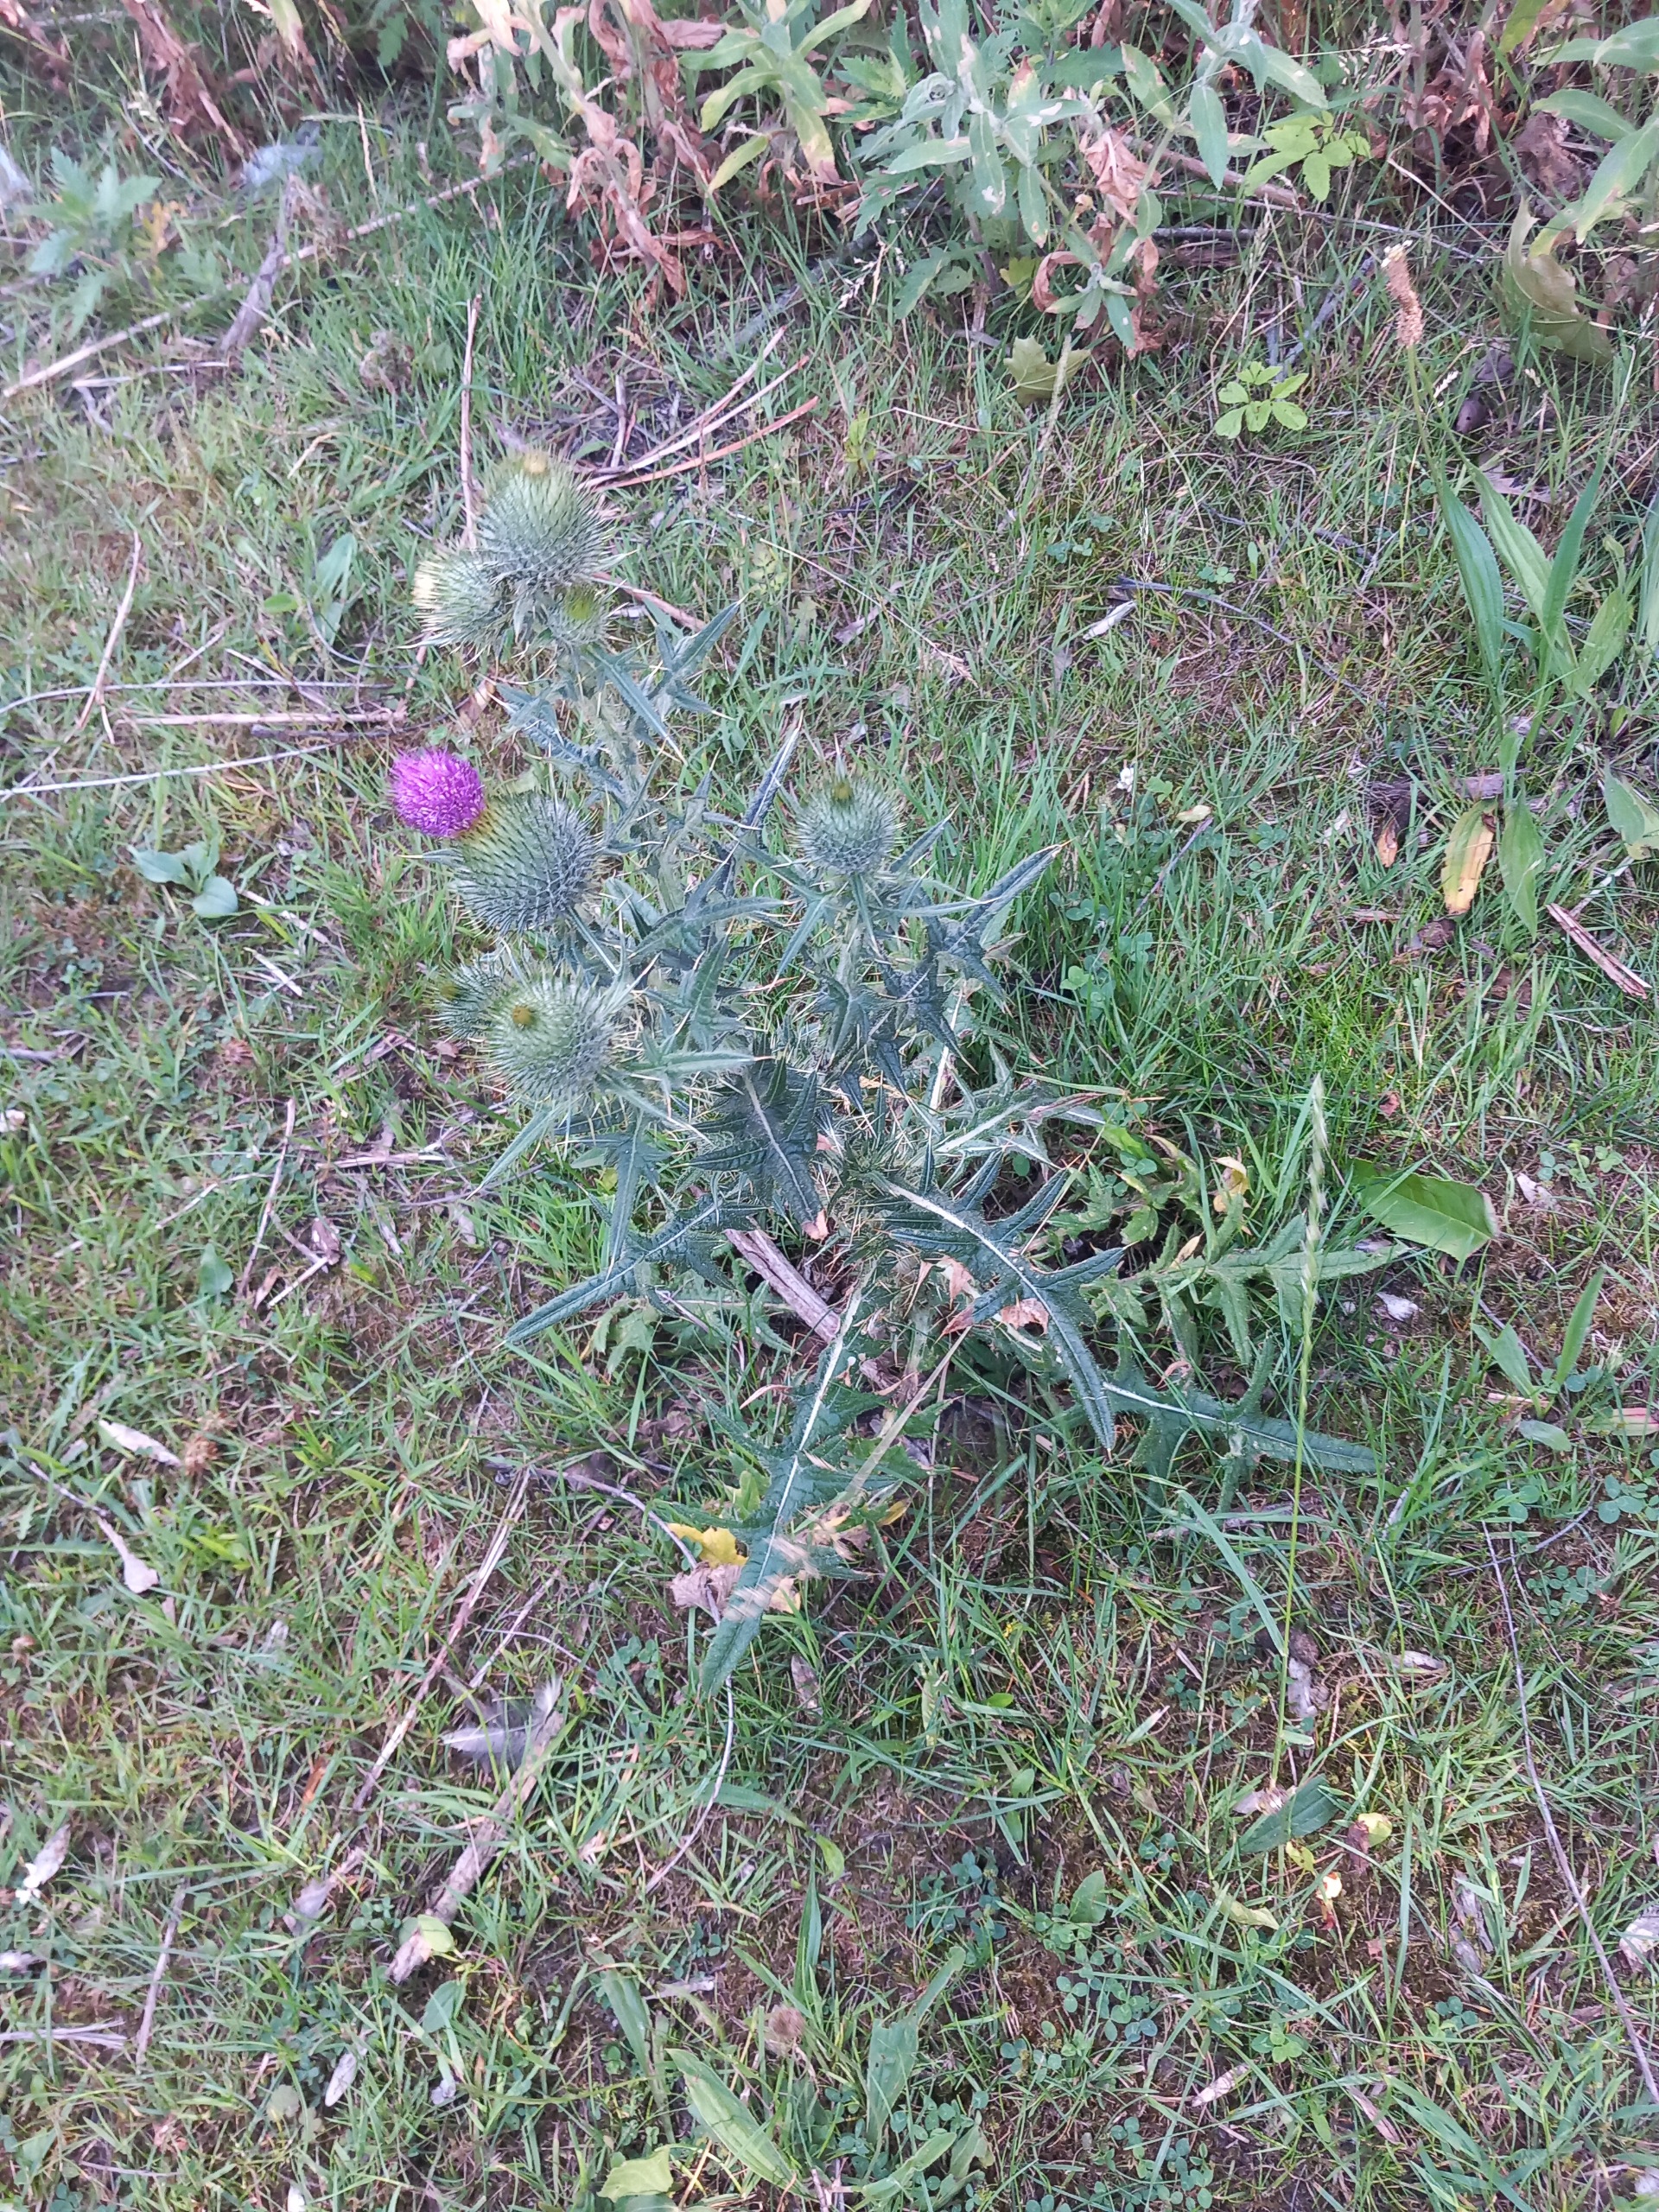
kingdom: Plantae
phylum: Tracheophyta
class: Magnoliopsida
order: Asterales
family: Asteraceae
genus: Cirsium
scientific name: Cirsium vulgare
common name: Horse-tidsel
